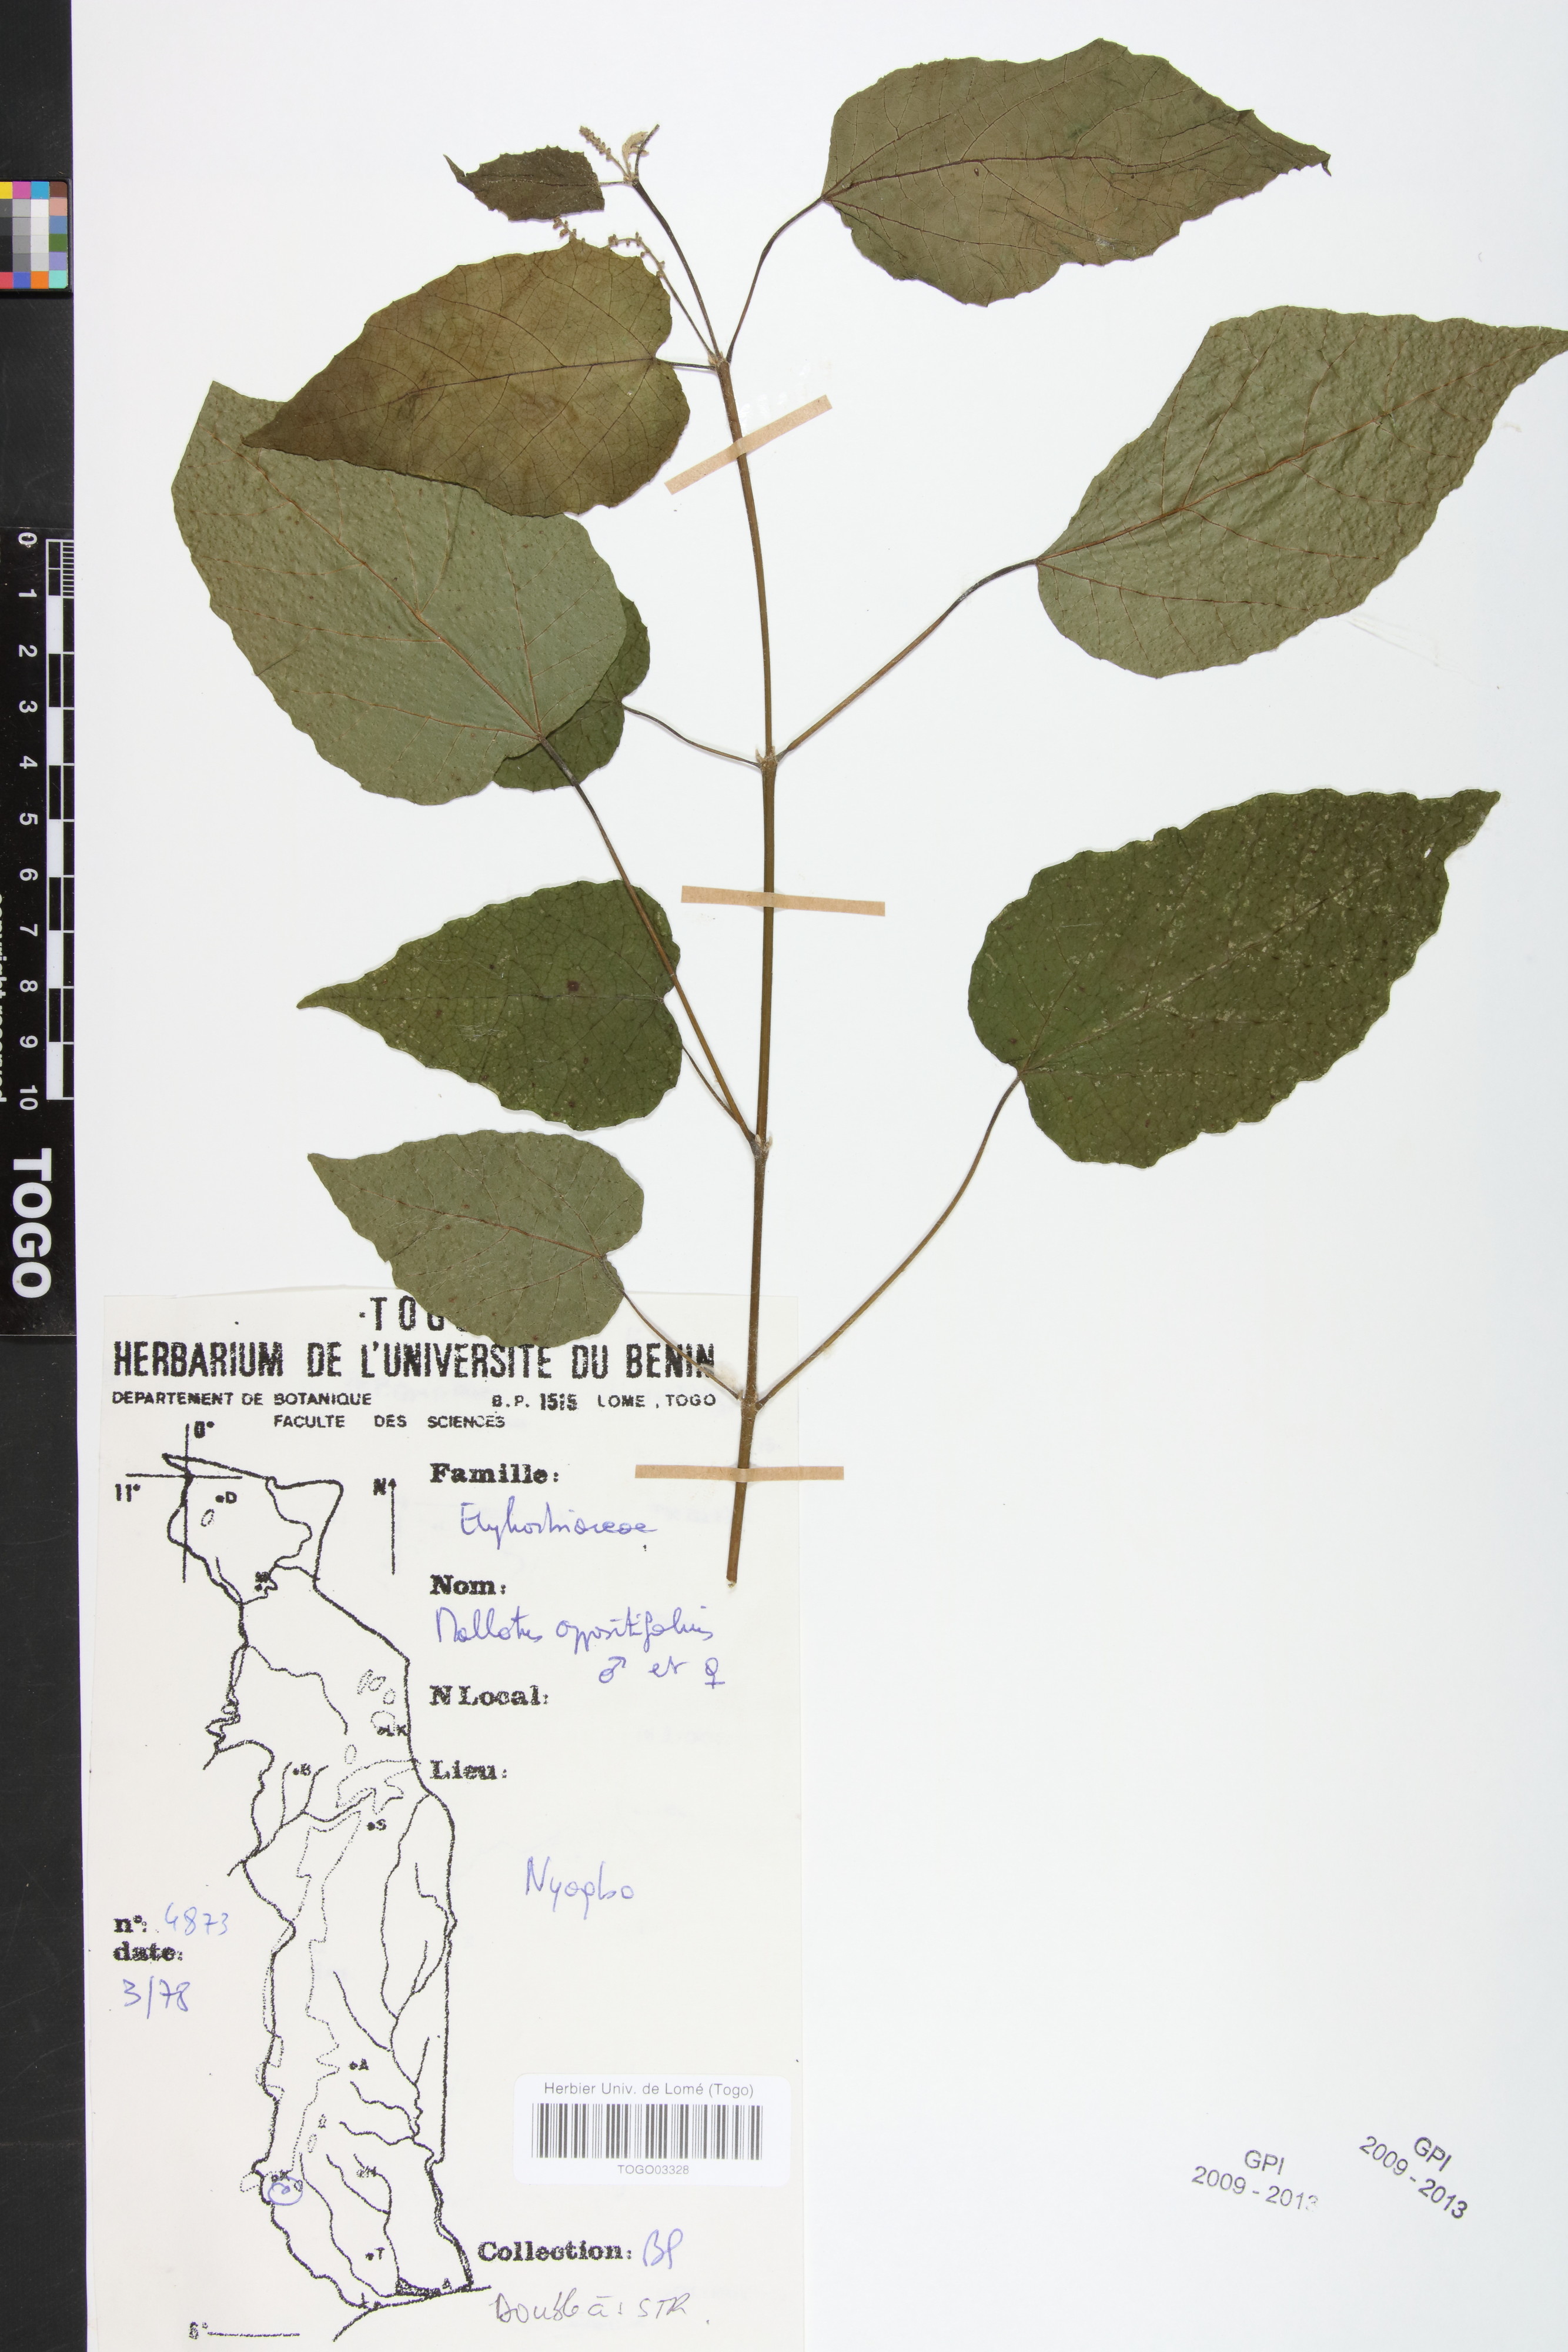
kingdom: Plantae
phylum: Tracheophyta
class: Magnoliopsida
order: Malpighiales
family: Euphorbiaceae
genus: Mallotus
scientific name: Mallotus oppositifolius
